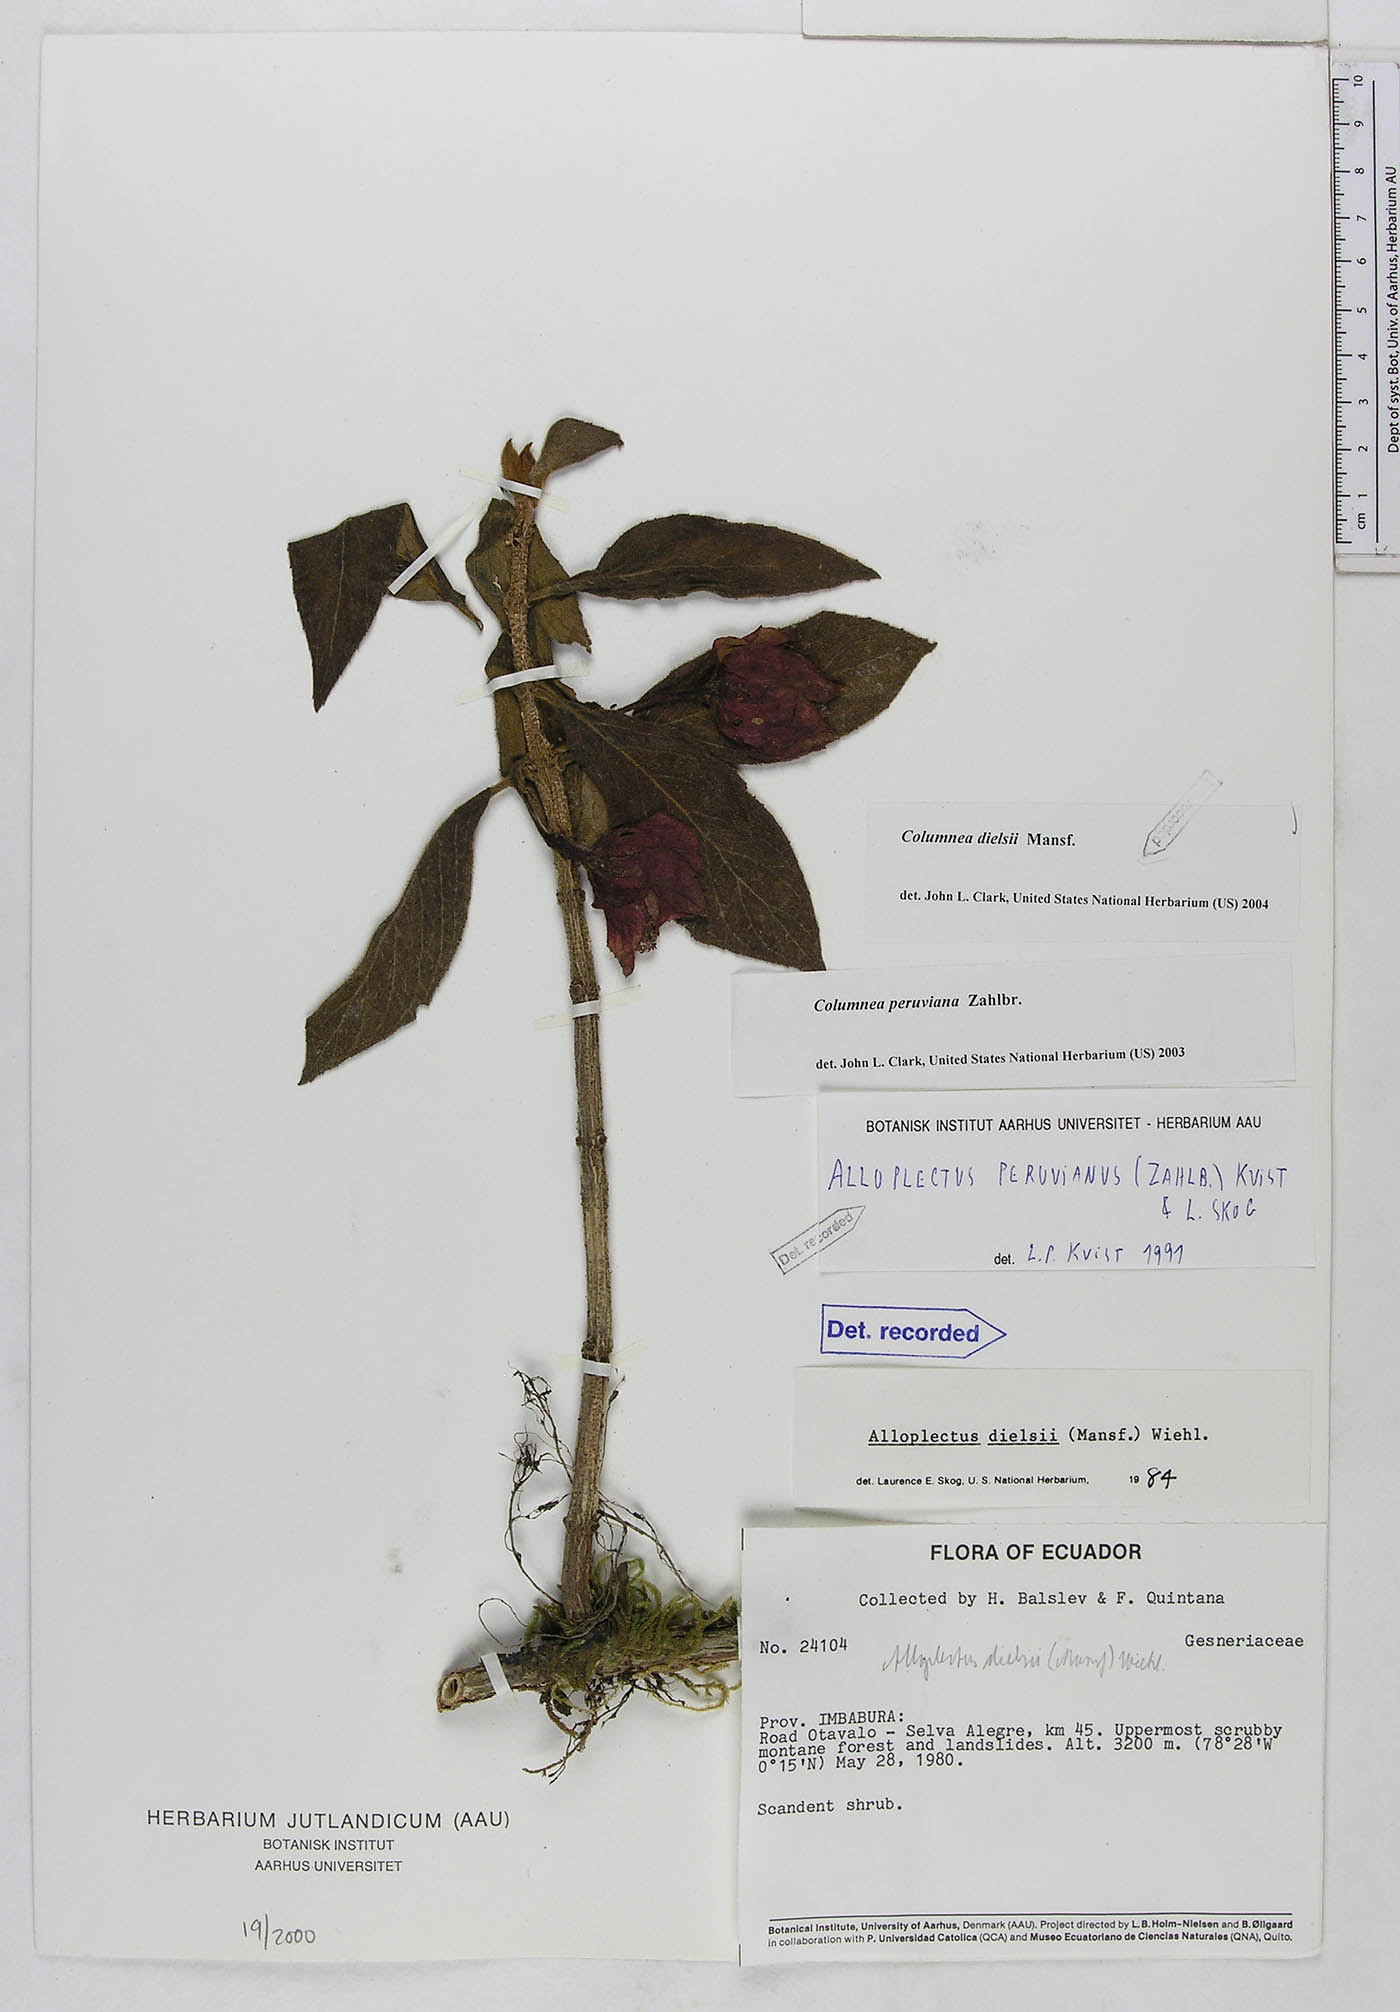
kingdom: Plantae
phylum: Tracheophyta
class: Magnoliopsida
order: Lamiales
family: Gesneriaceae
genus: Columnea
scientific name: Columnea dielsii
